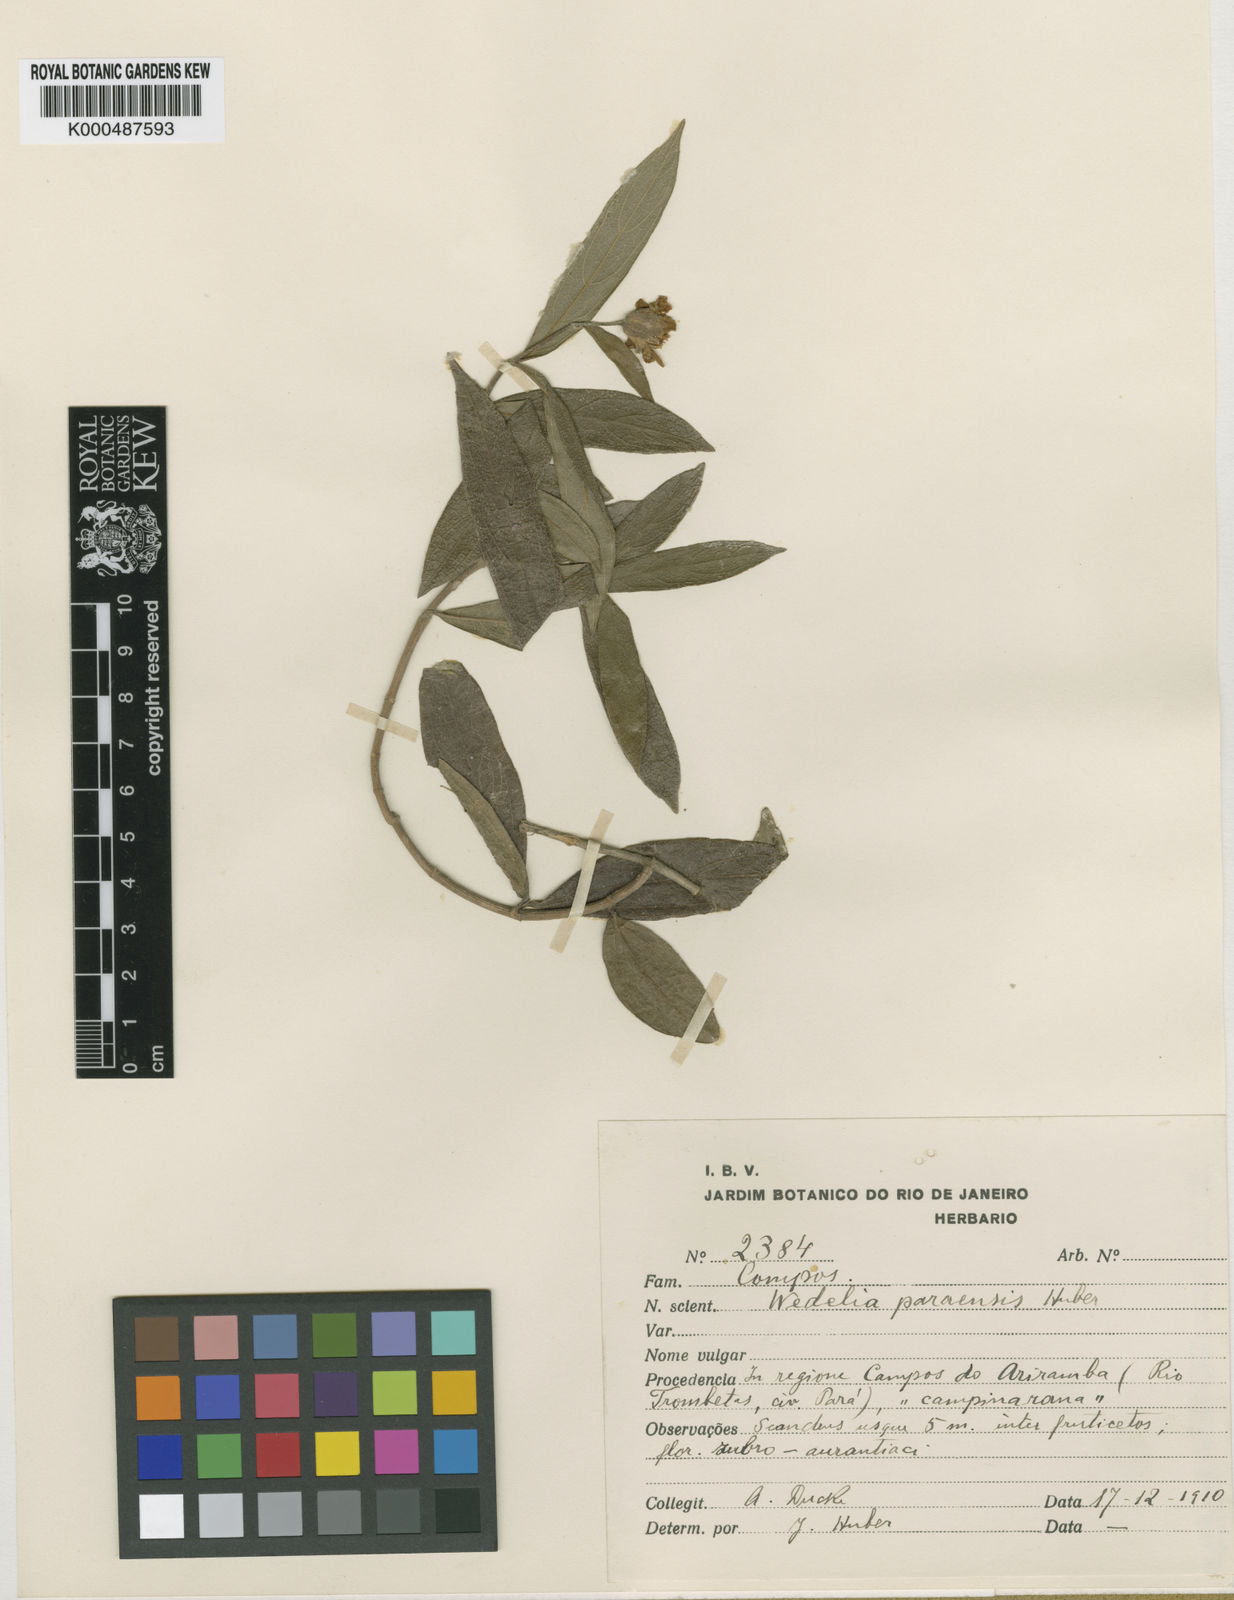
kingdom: Plantae
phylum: Tracheophyta
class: Magnoliopsida
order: Asterales
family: Asteraceae
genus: Aspilia
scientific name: Aspilia paraensis
